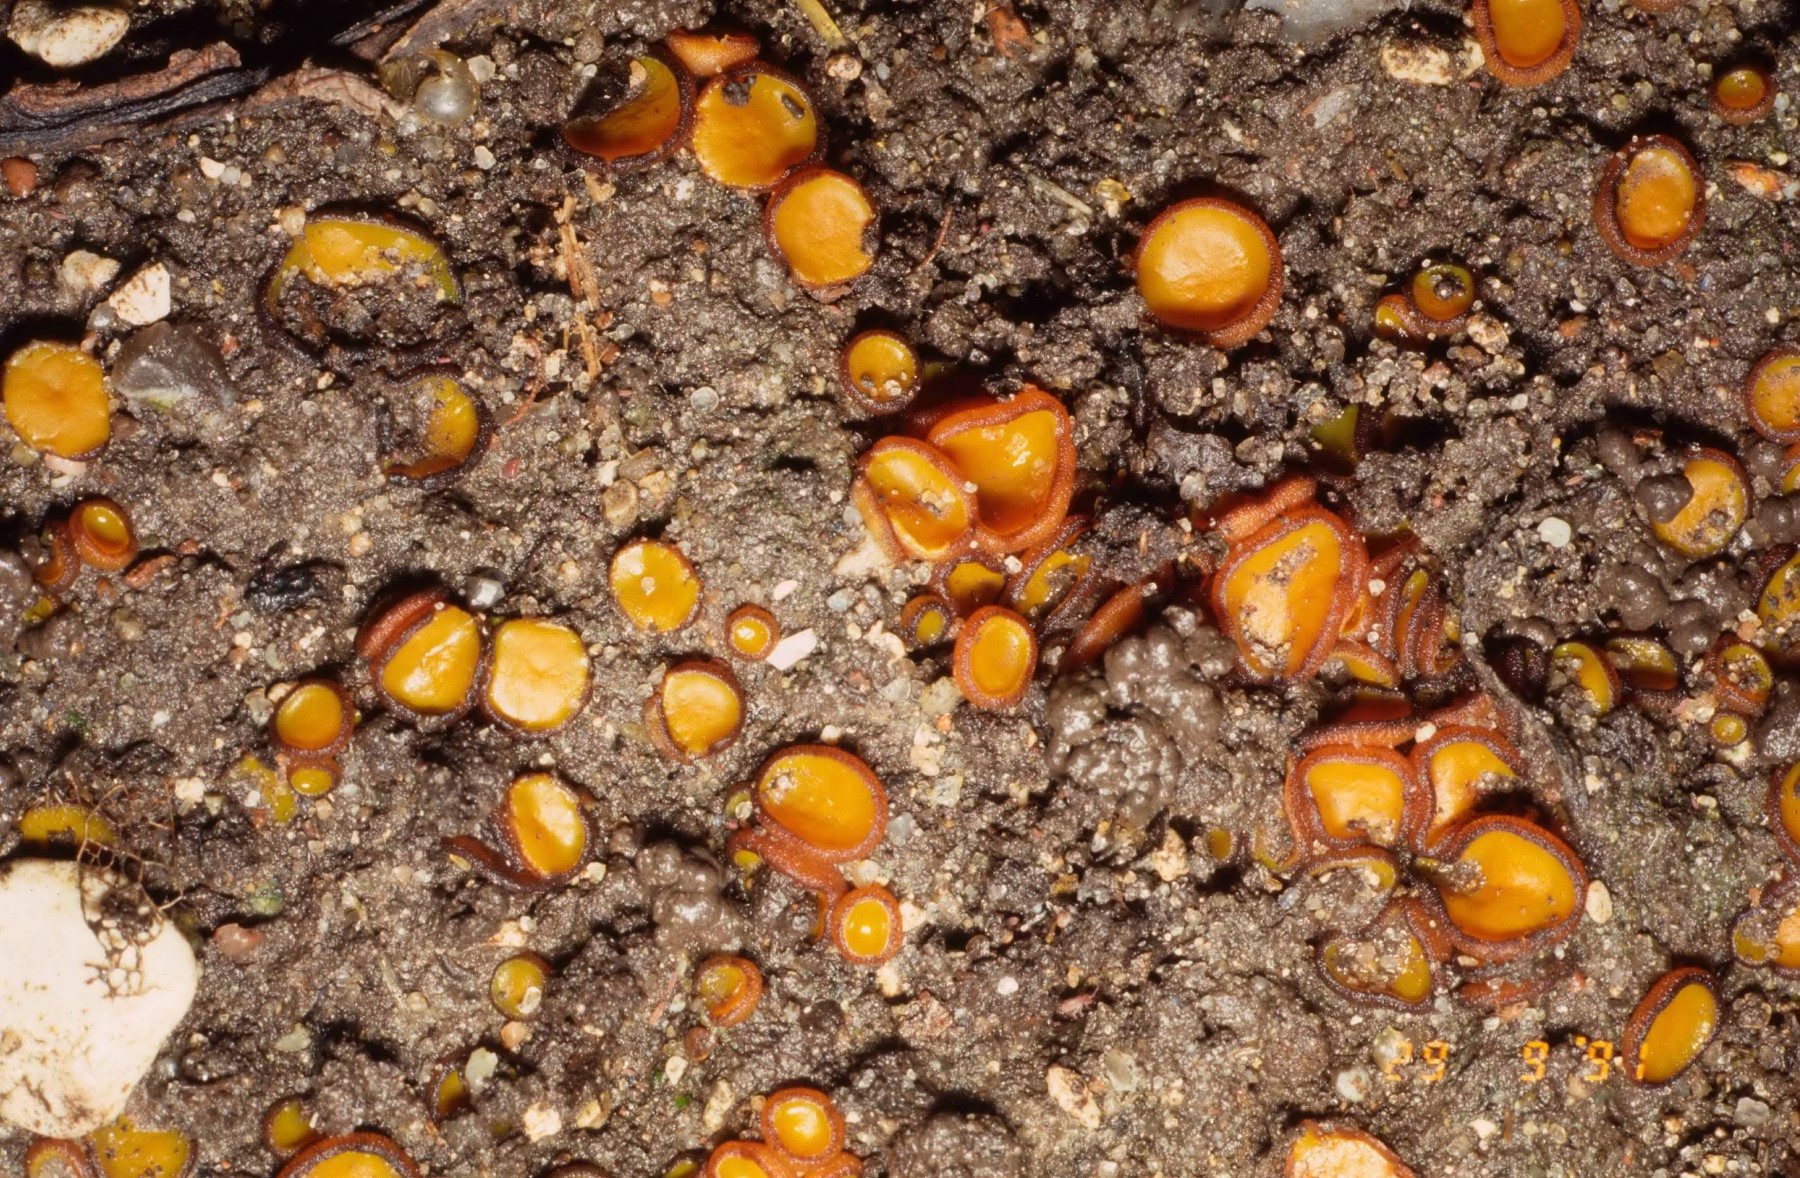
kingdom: Fungi
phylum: Ascomycota
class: Pezizomycetes
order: Pezizales
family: Pyronemataceae
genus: Melastiza
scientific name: Melastiza cornubiensis
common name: mørkrandet rødbæger
